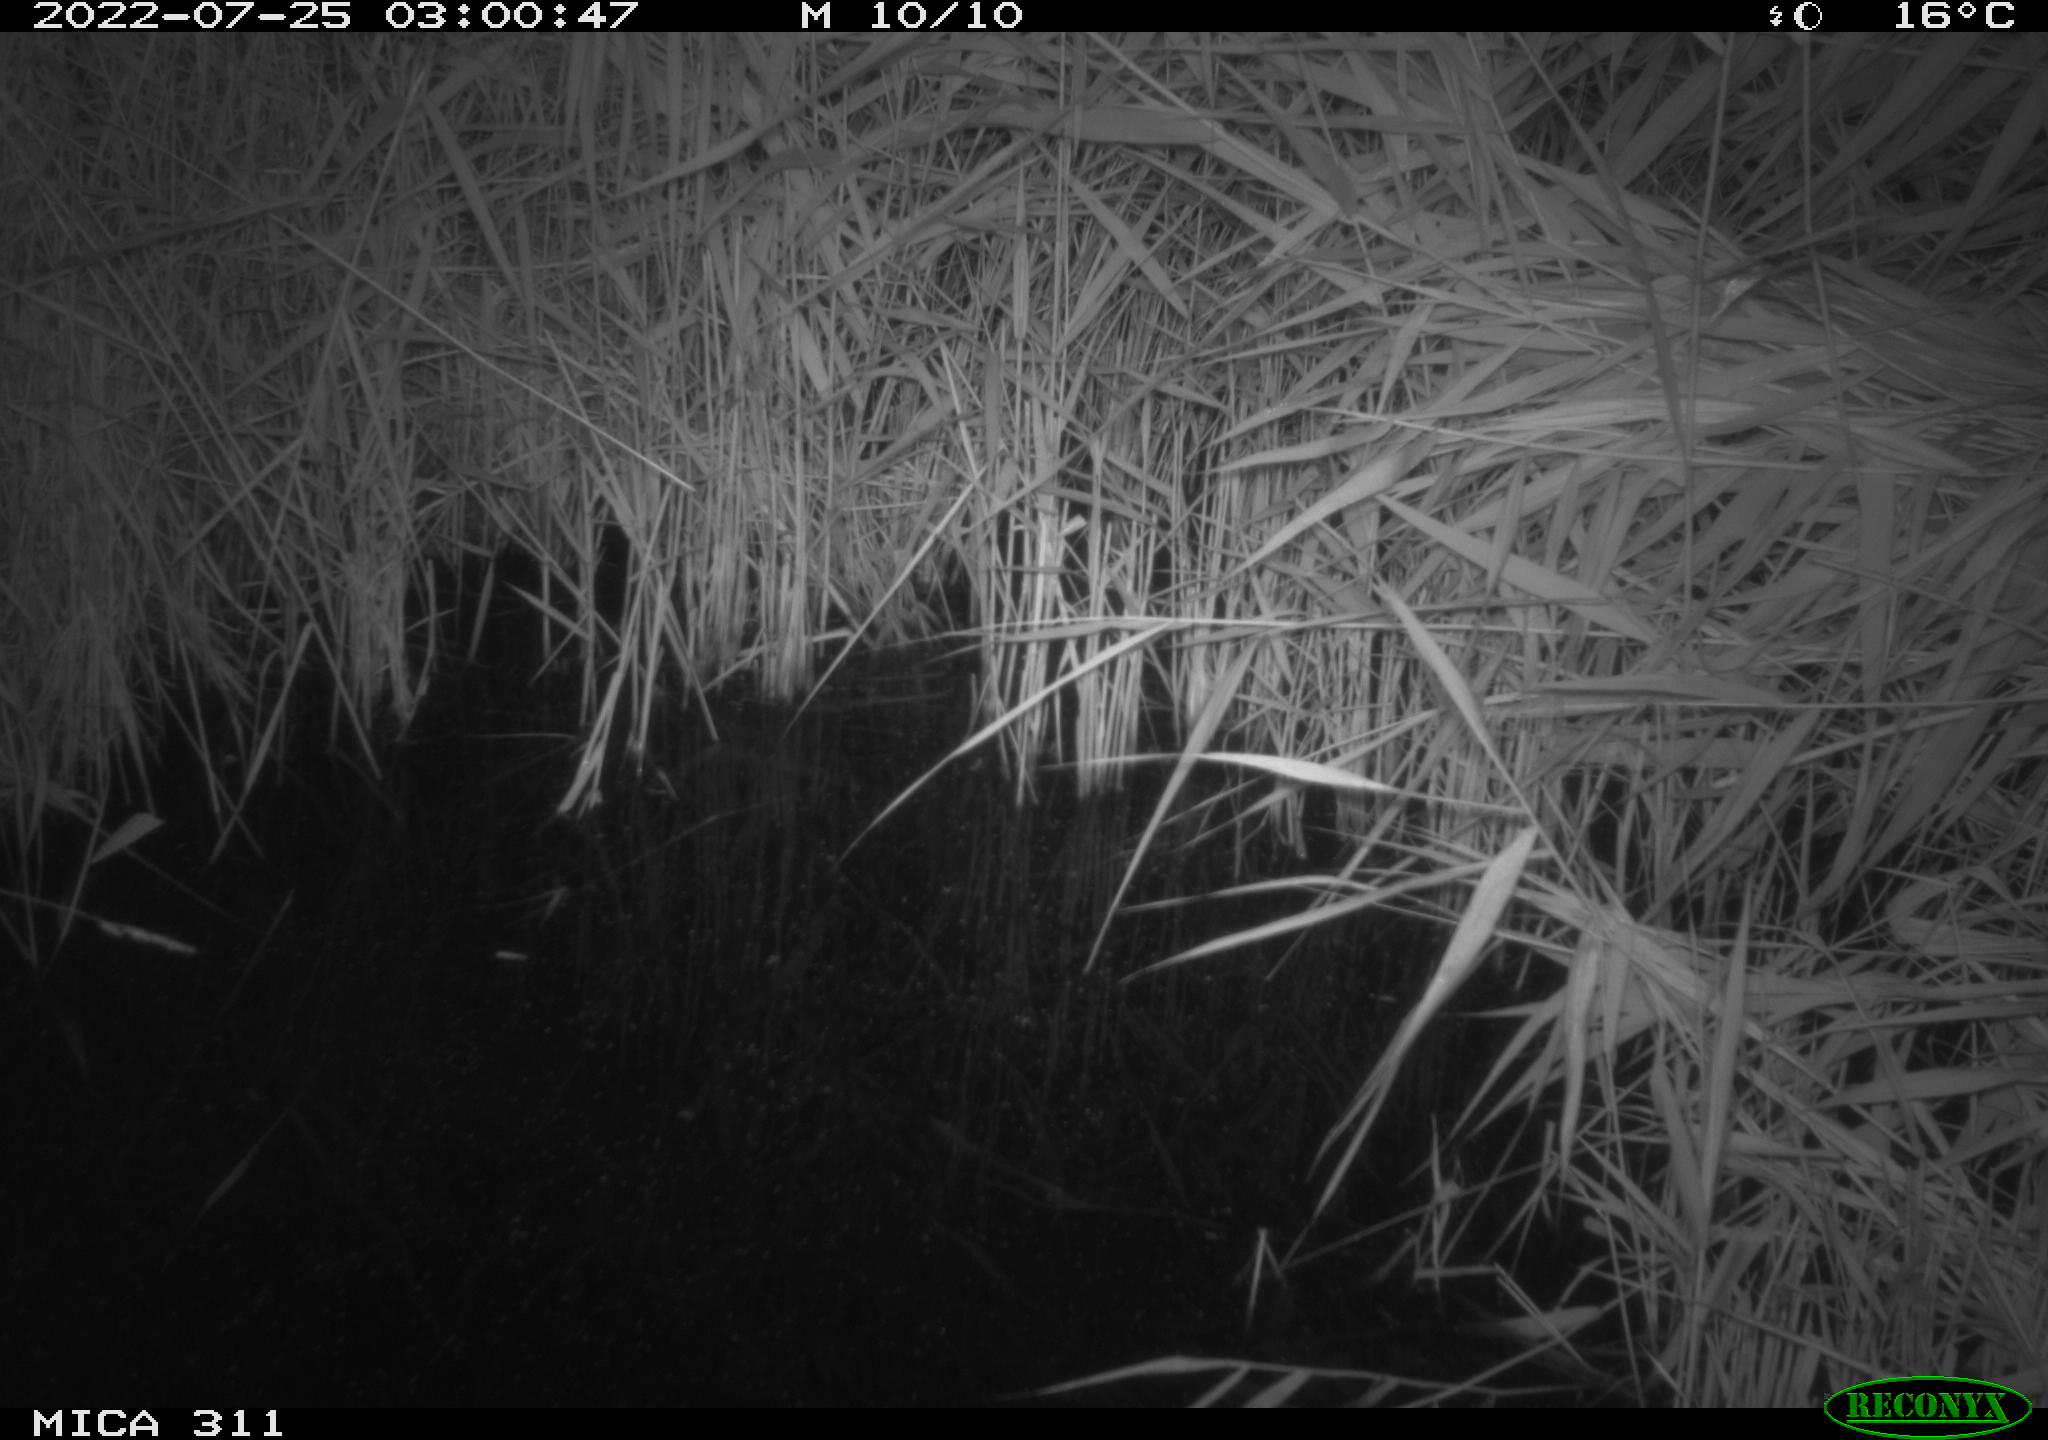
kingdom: Animalia
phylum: Chordata
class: Mammalia
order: Rodentia
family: Muridae
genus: Rattus
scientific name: Rattus norvegicus
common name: Brown rat
